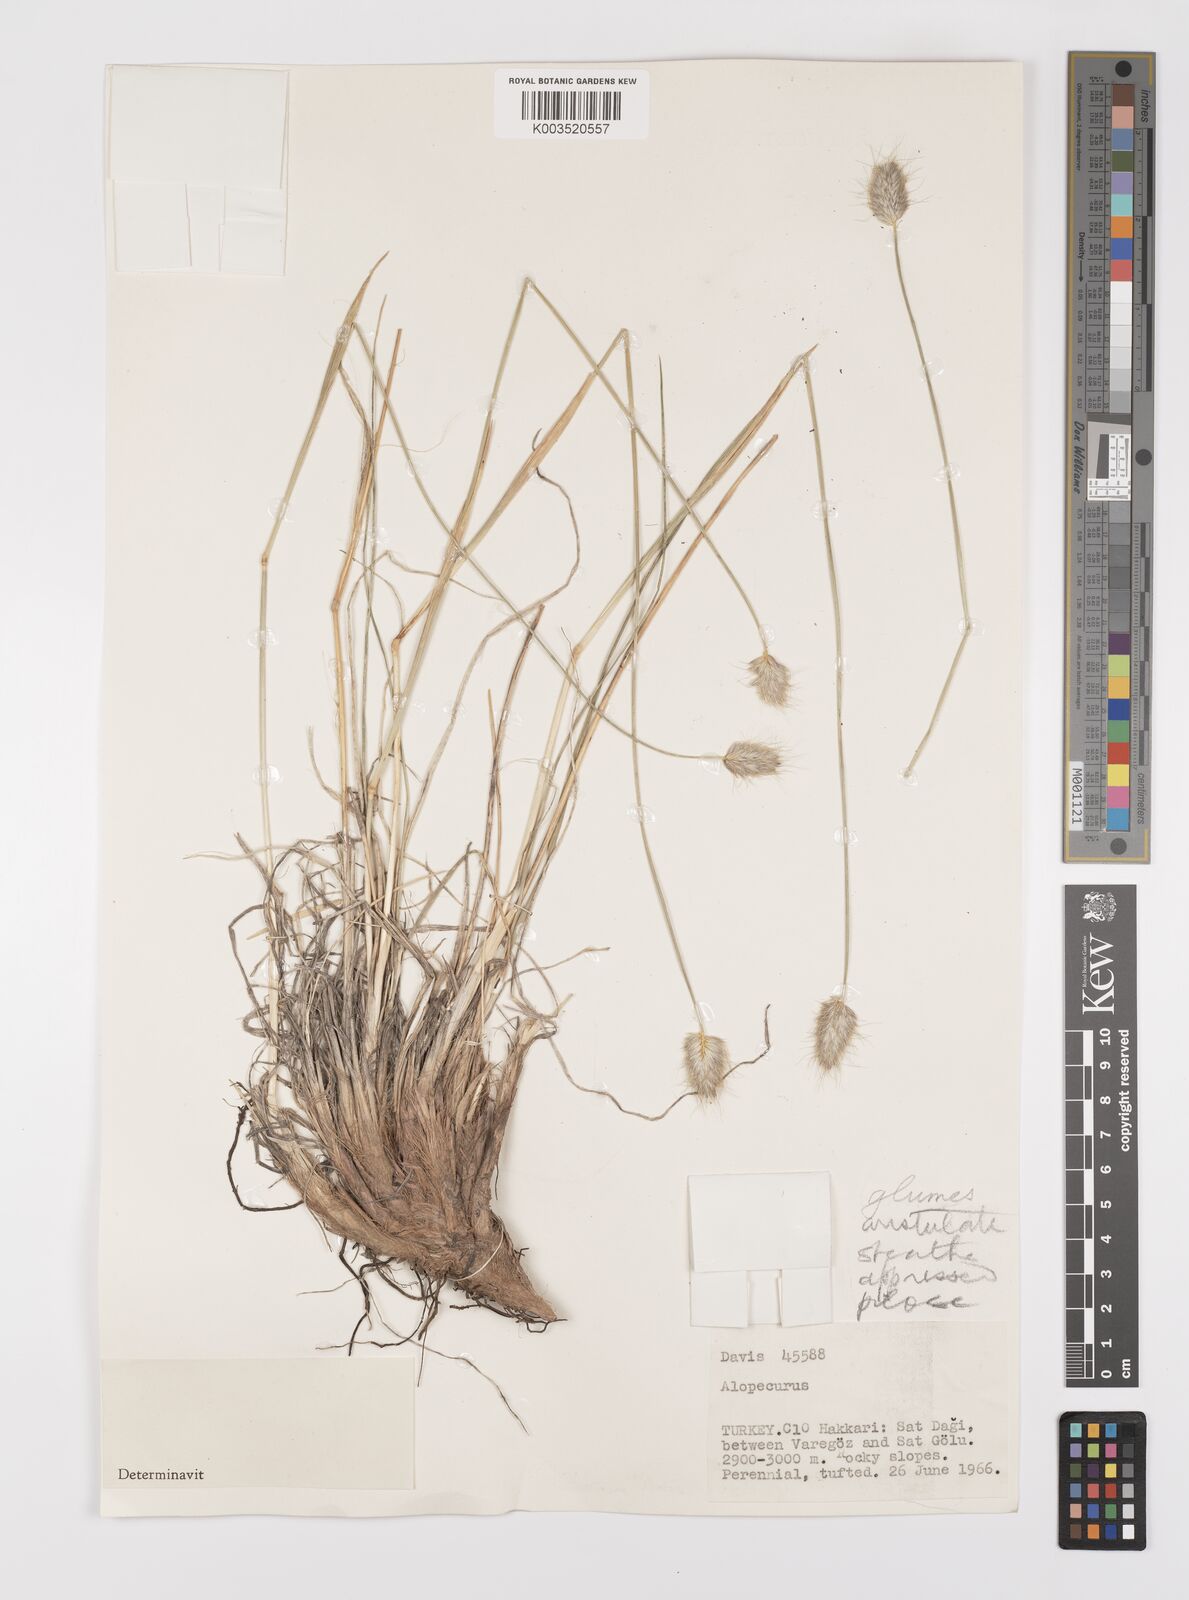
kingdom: Plantae
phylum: Tracheophyta
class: Liliopsida
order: Poales
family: Poaceae
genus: Alopecurus
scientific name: Alopecurus textilis
